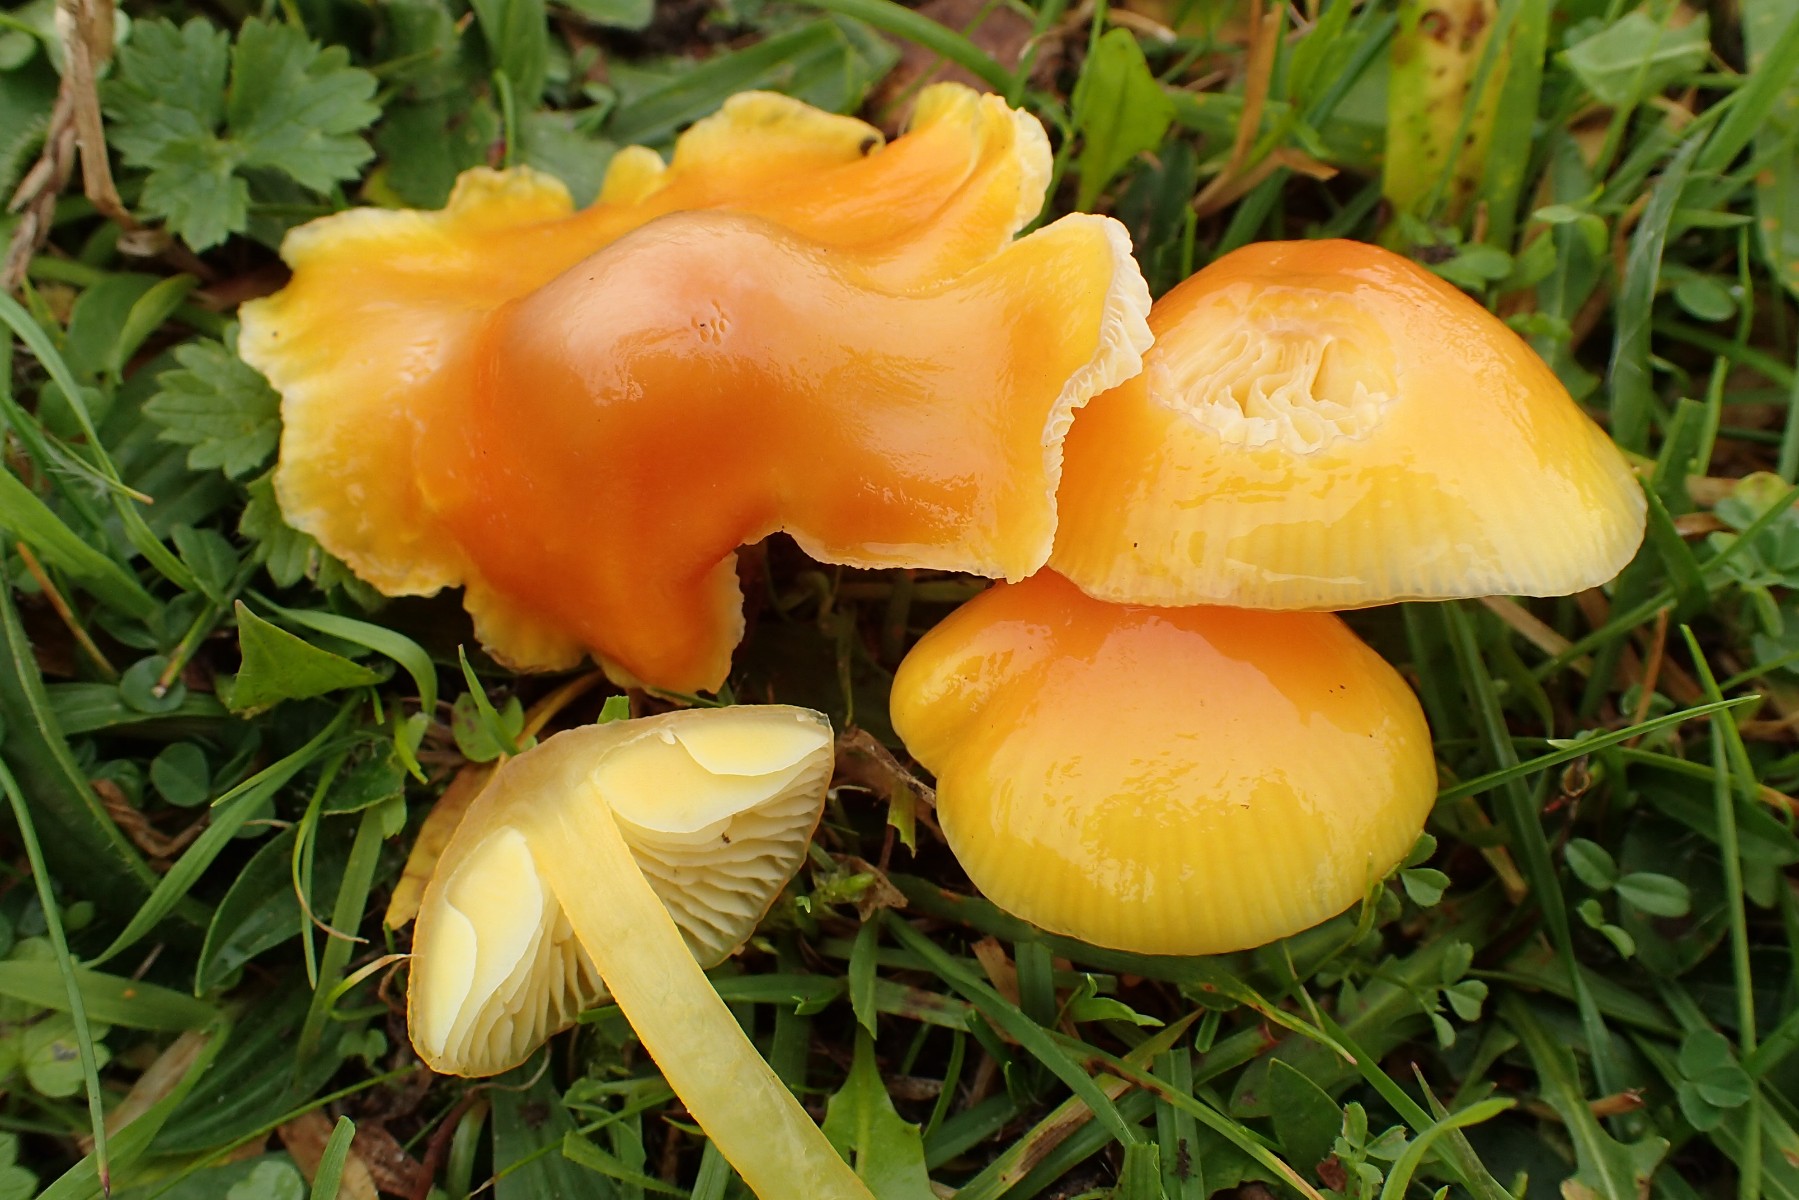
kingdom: Fungi
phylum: Basidiomycota
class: Agaricomycetes
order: Agaricales
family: Hygrophoraceae
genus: Hygrocybe
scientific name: Hygrocybe chlorophana
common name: gul vokshat
